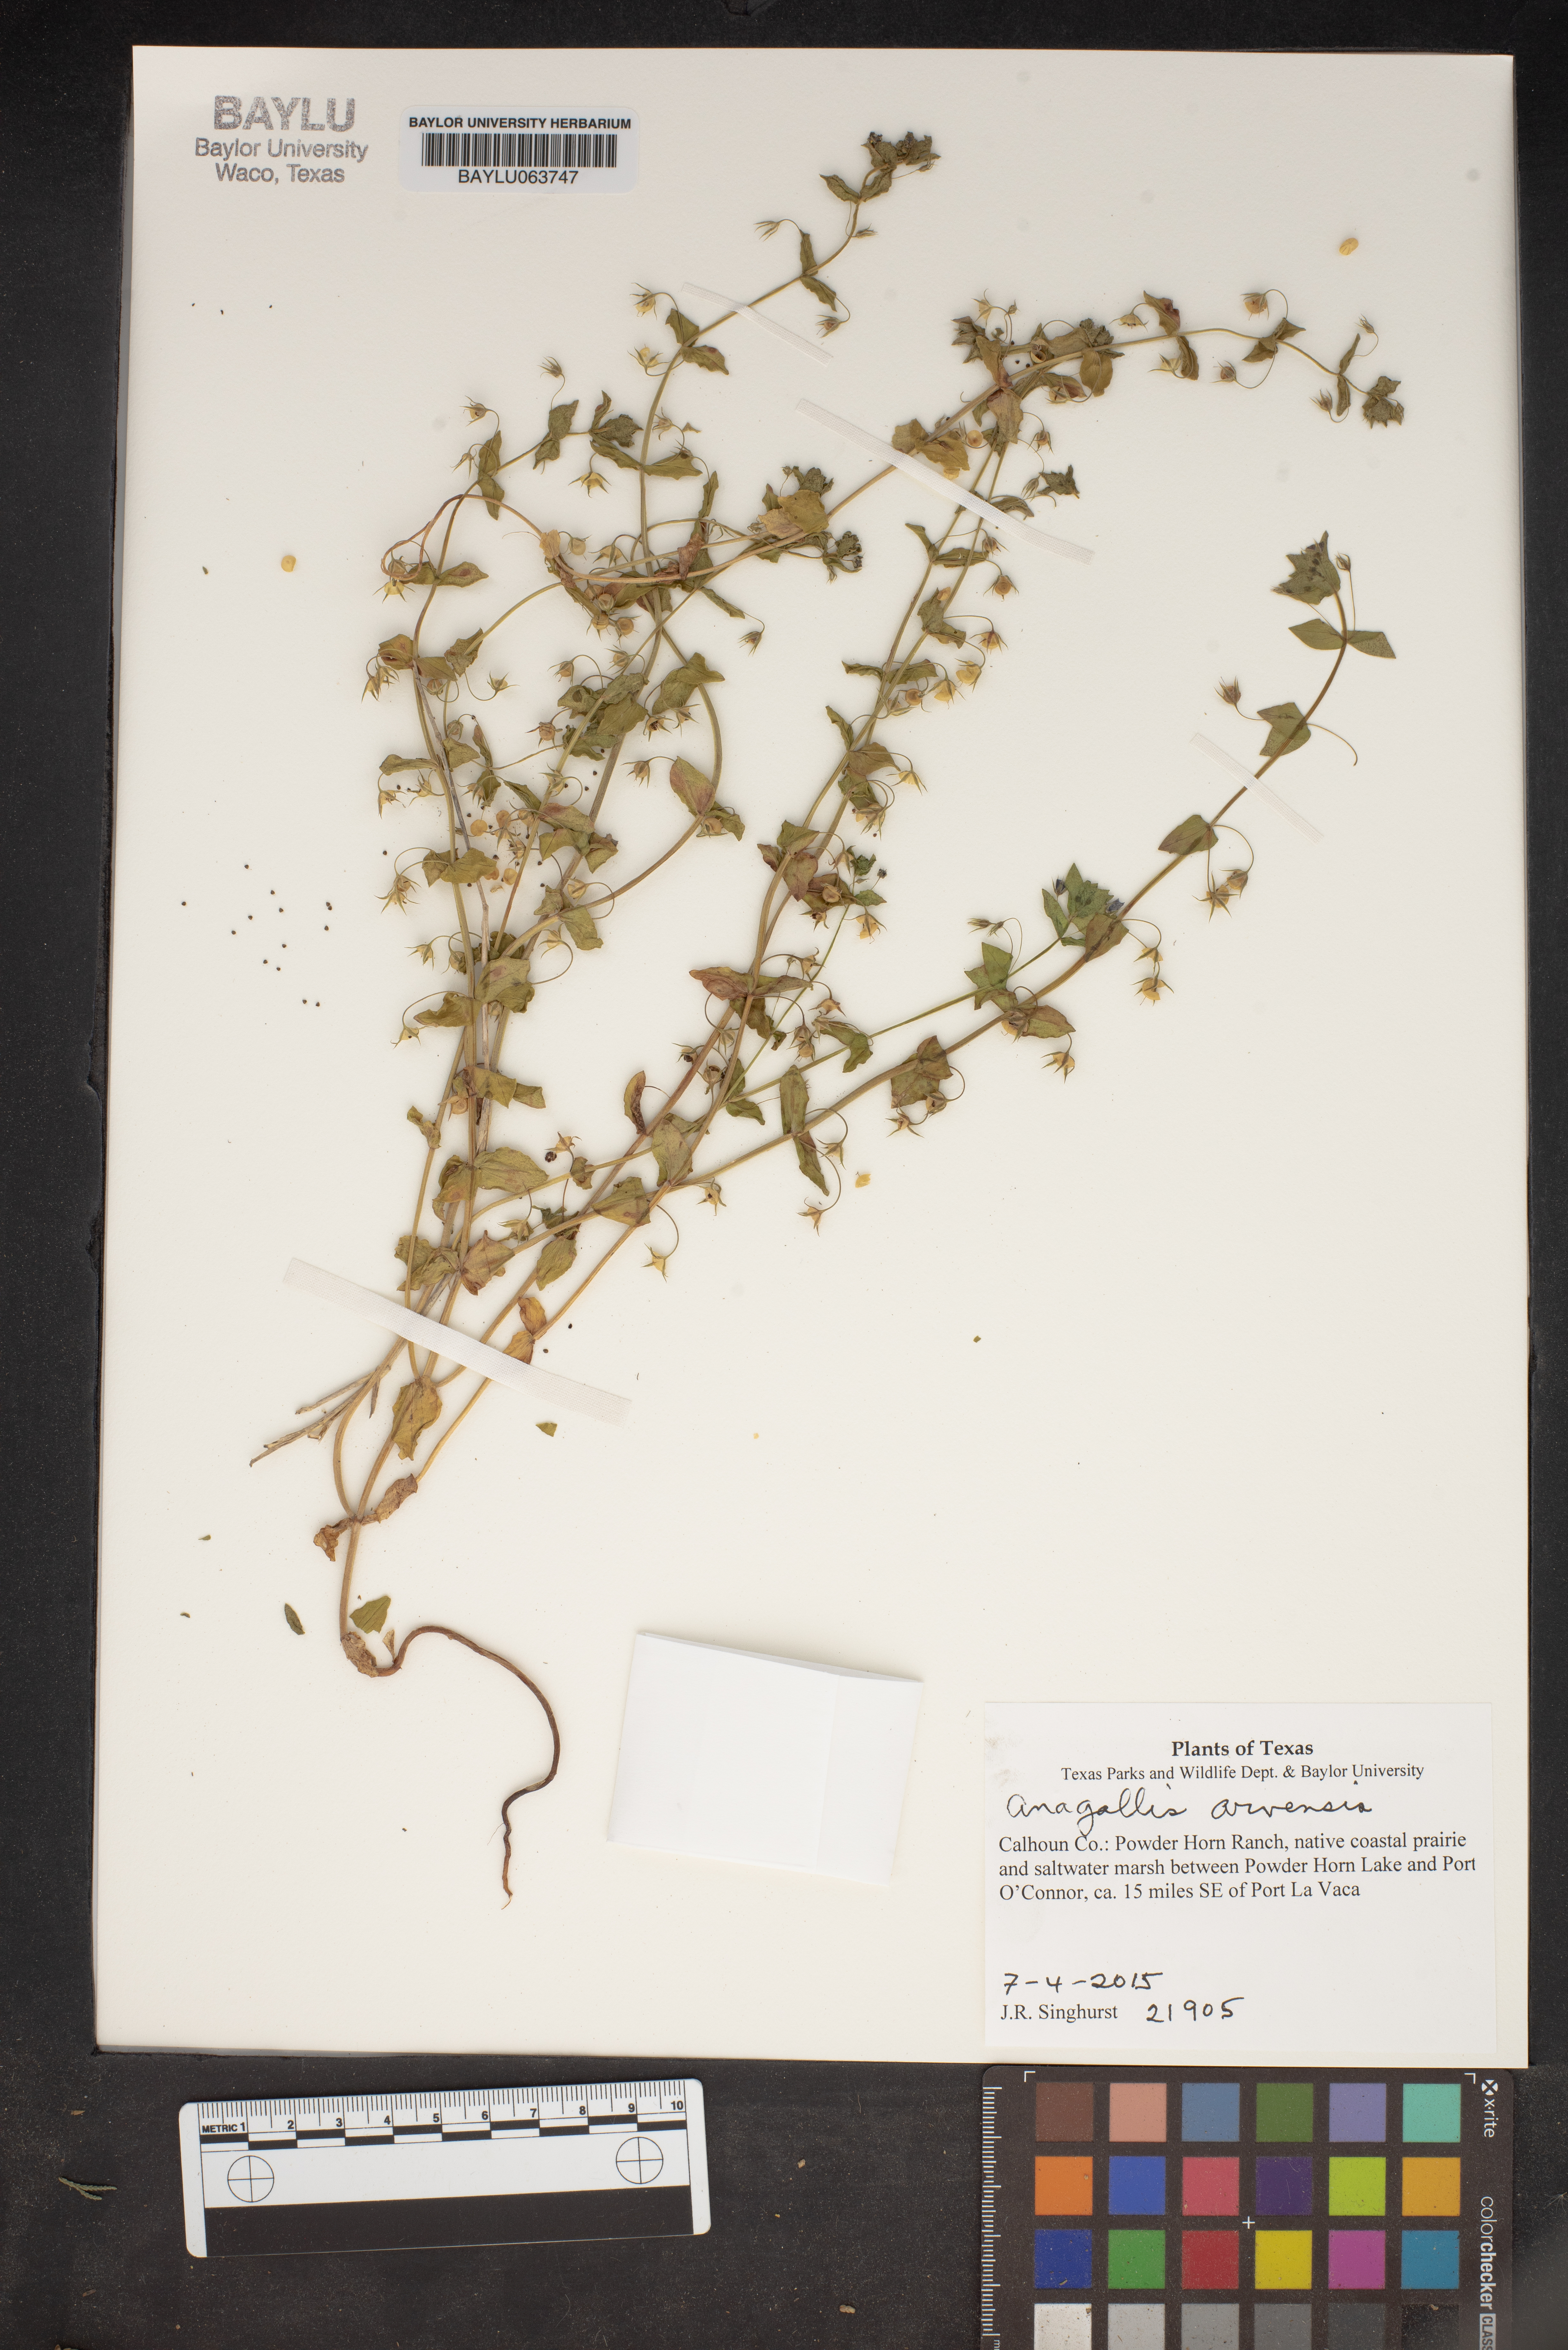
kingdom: Plantae
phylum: Tracheophyta
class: Magnoliopsida
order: Ericales
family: Primulaceae
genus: Lysimachia
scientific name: Lysimachia arvensis
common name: Scarlet pimpernel
